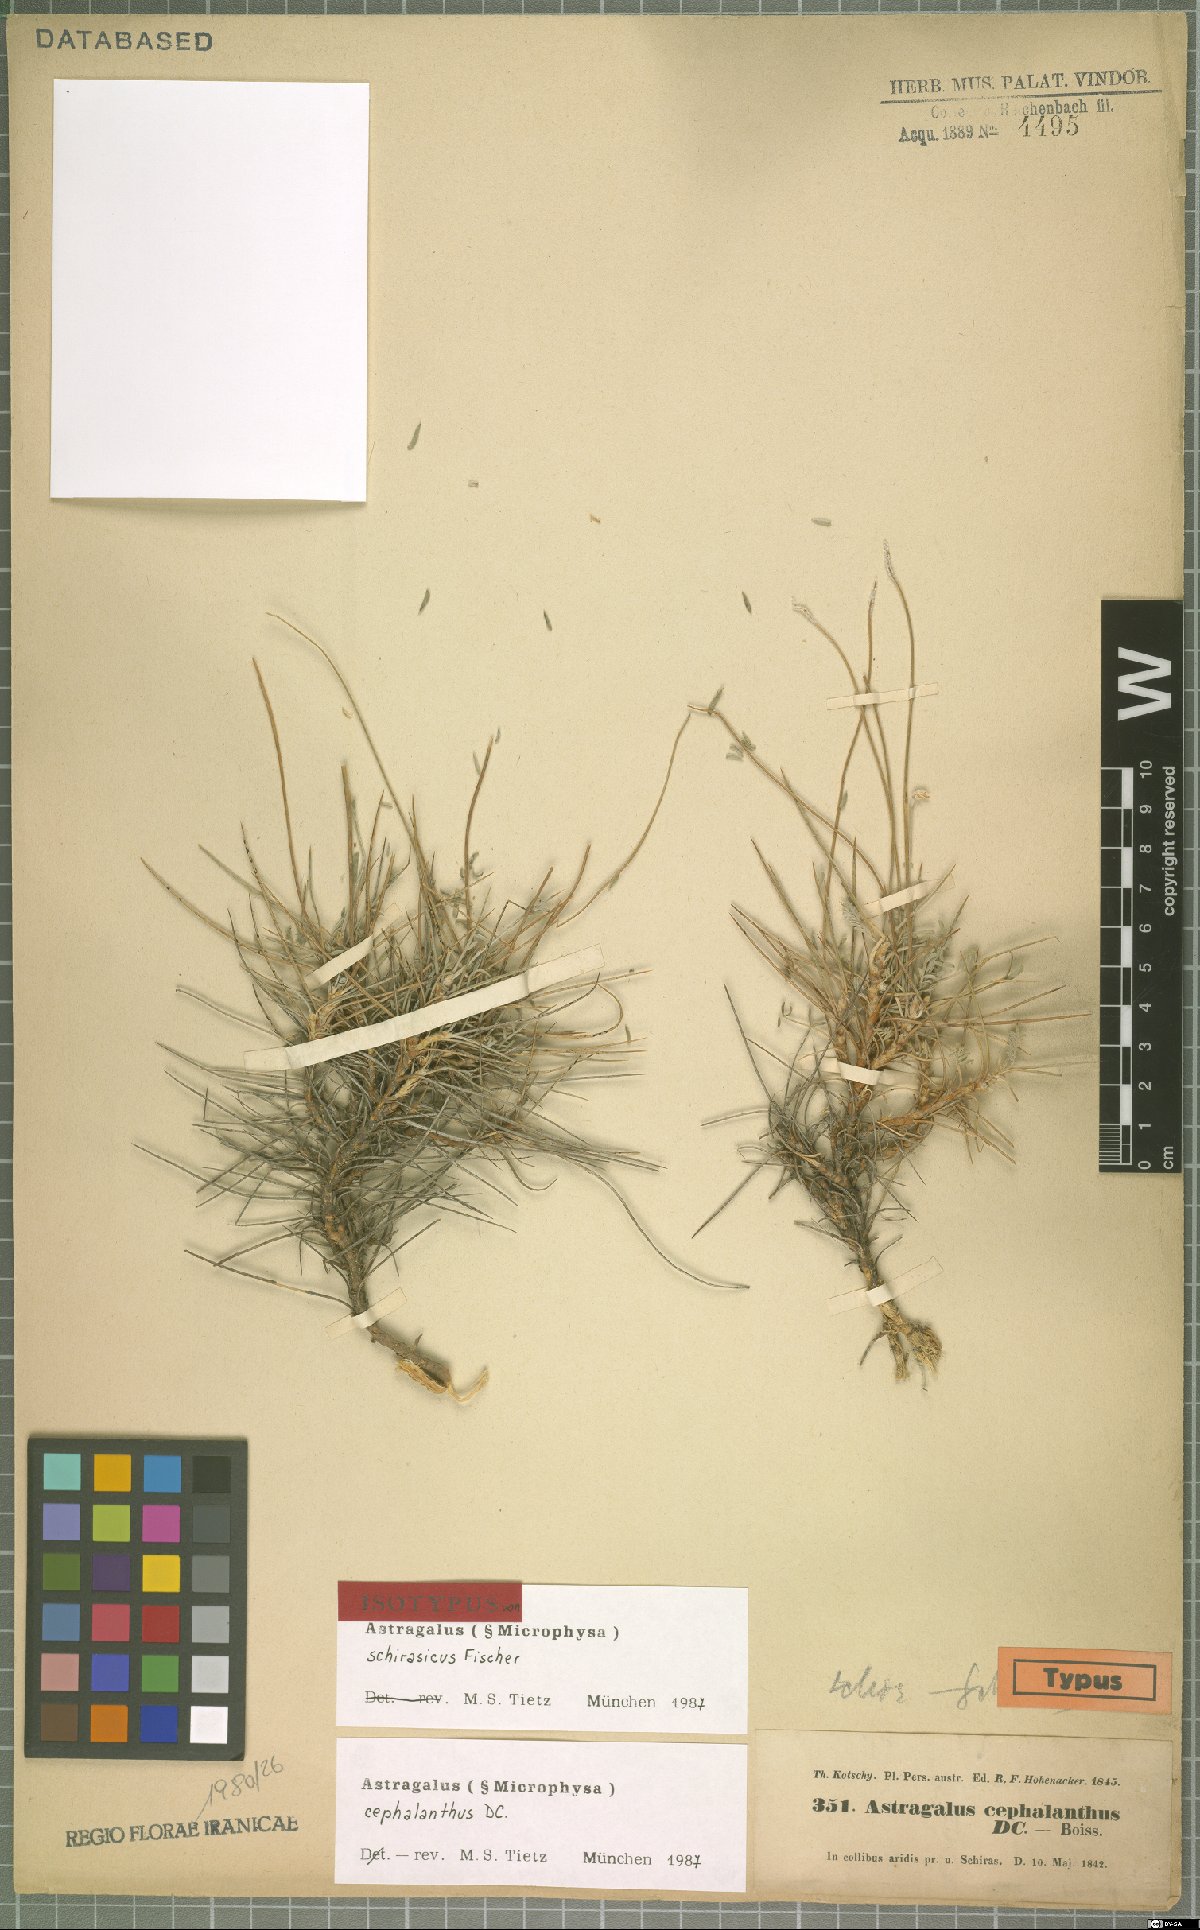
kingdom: Plantae
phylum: Tracheophyta
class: Magnoliopsida
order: Fabales
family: Fabaceae
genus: Astragalus
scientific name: Astragalus cephalanthus
